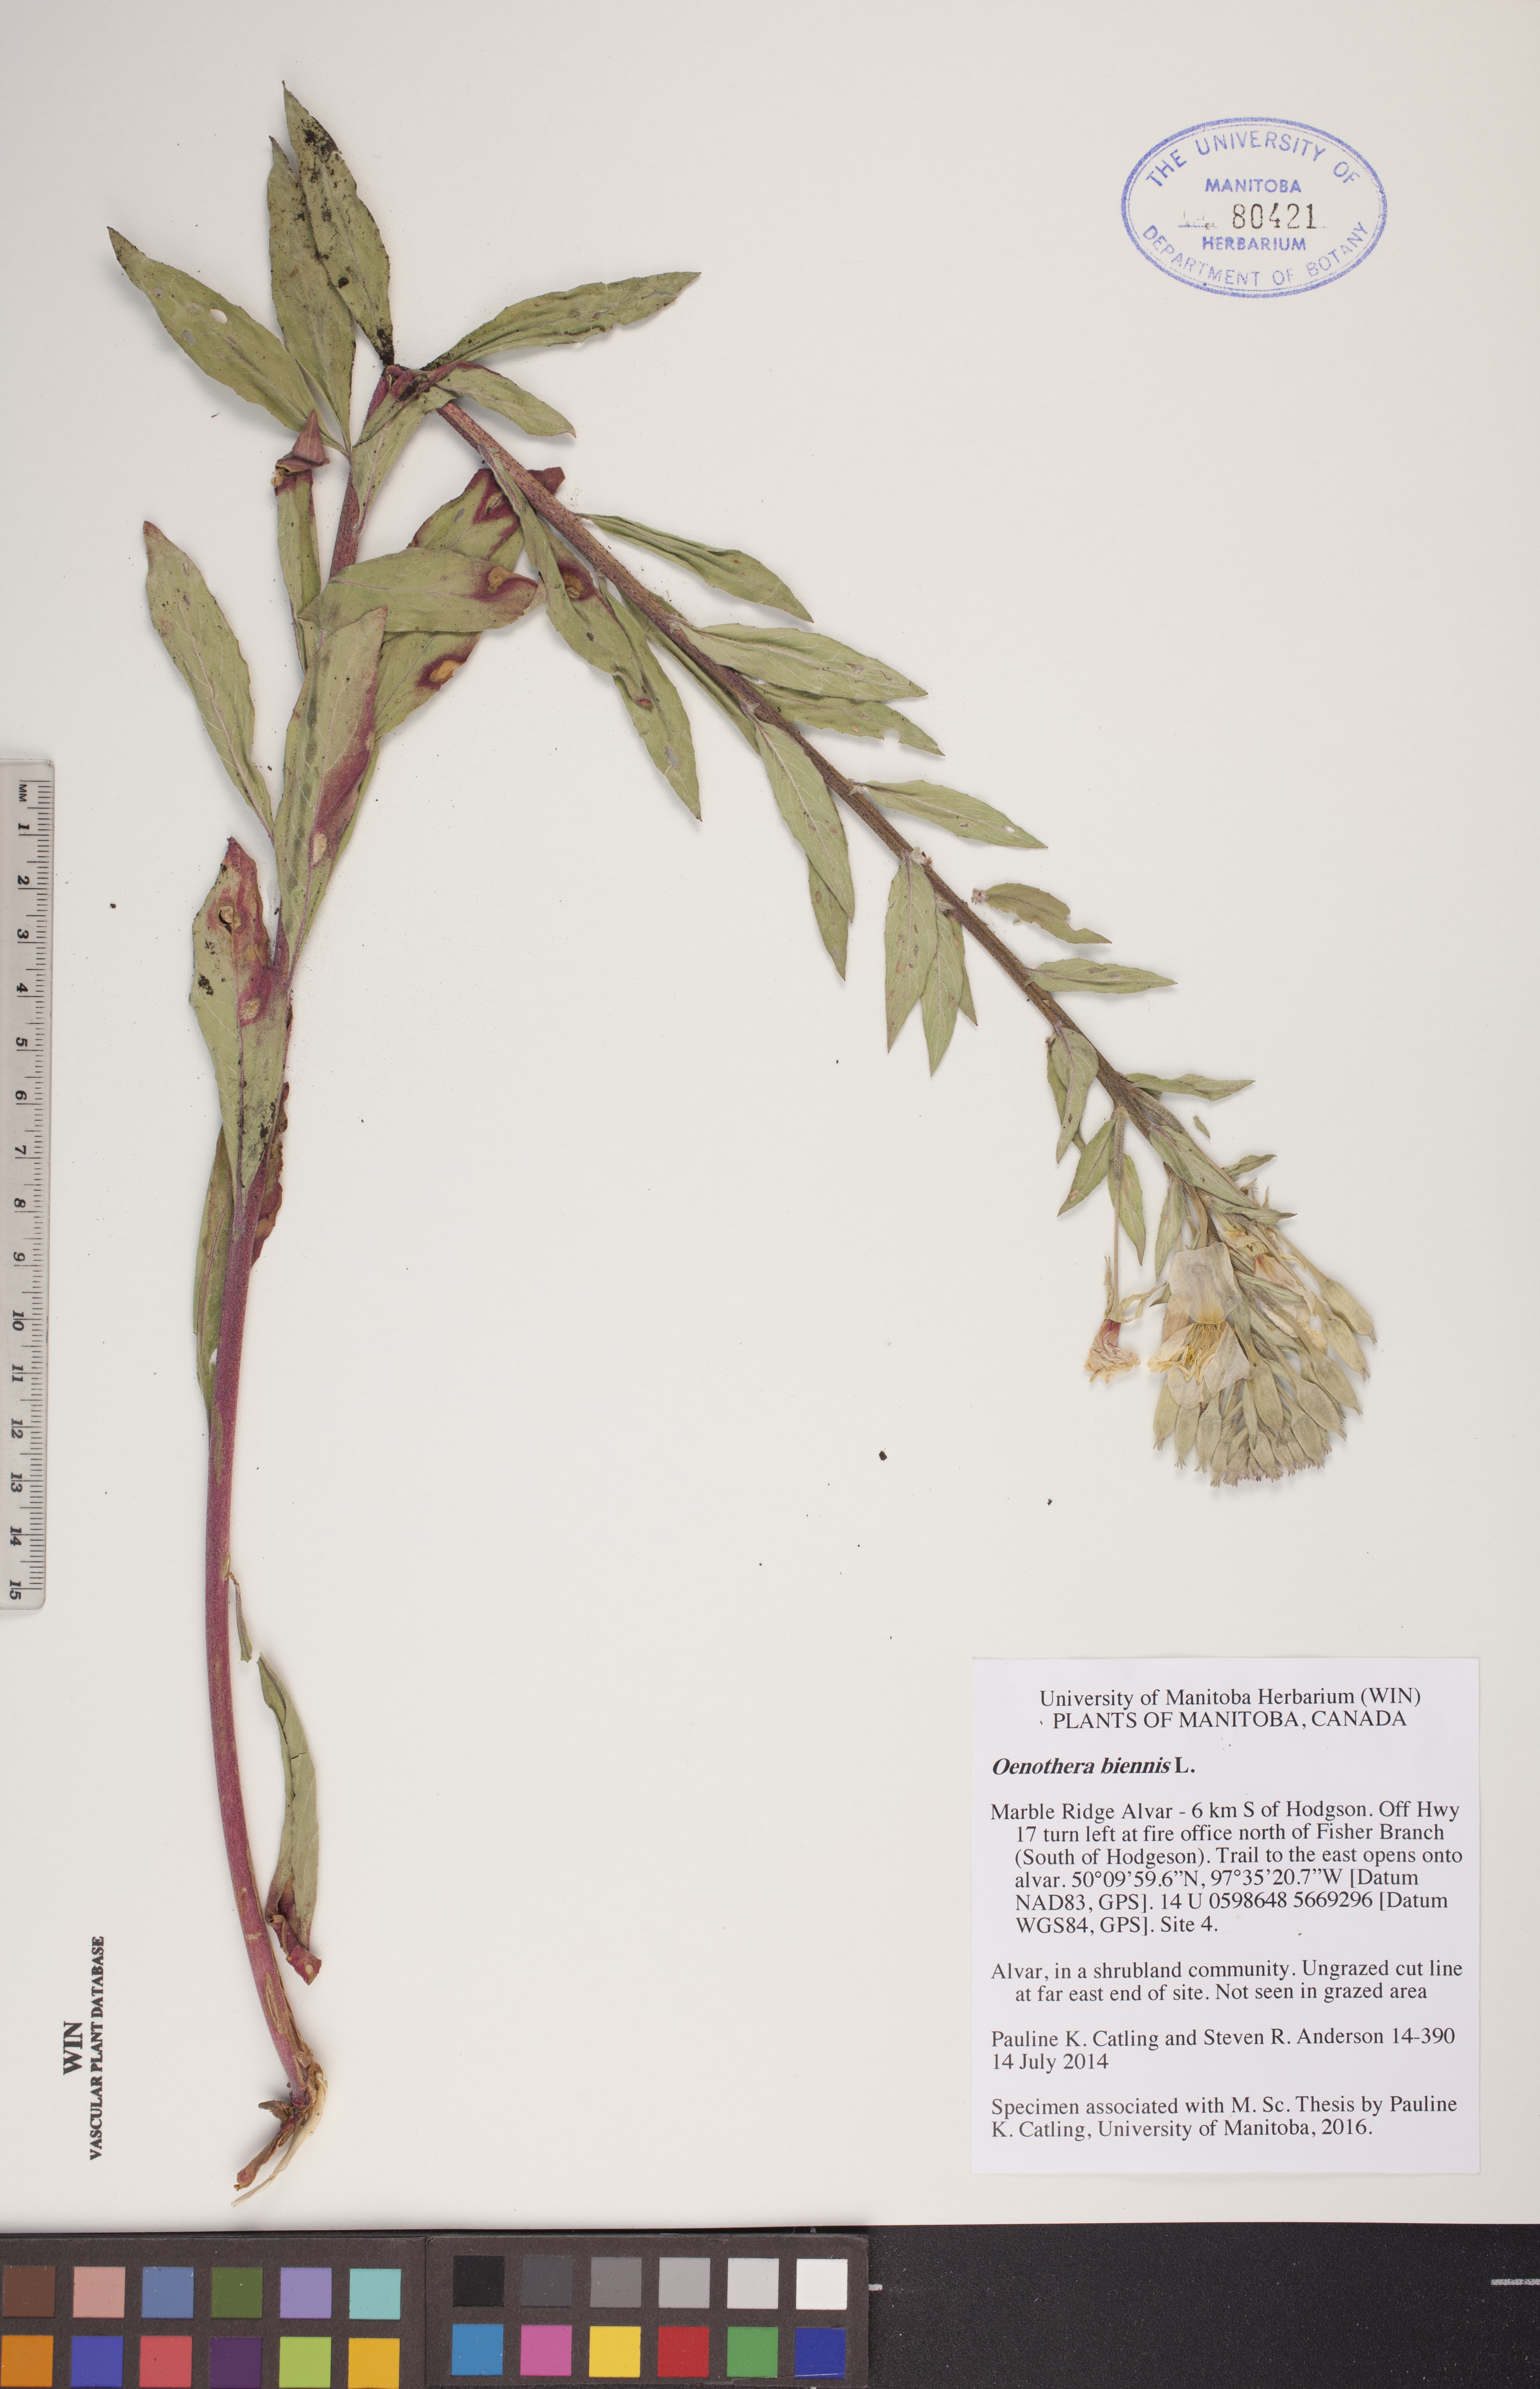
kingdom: Plantae
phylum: Tracheophyta
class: Magnoliopsida
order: Myrtales
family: Onagraceae
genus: Oenothera
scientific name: Oenothera biennis
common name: Common evening-primrose
